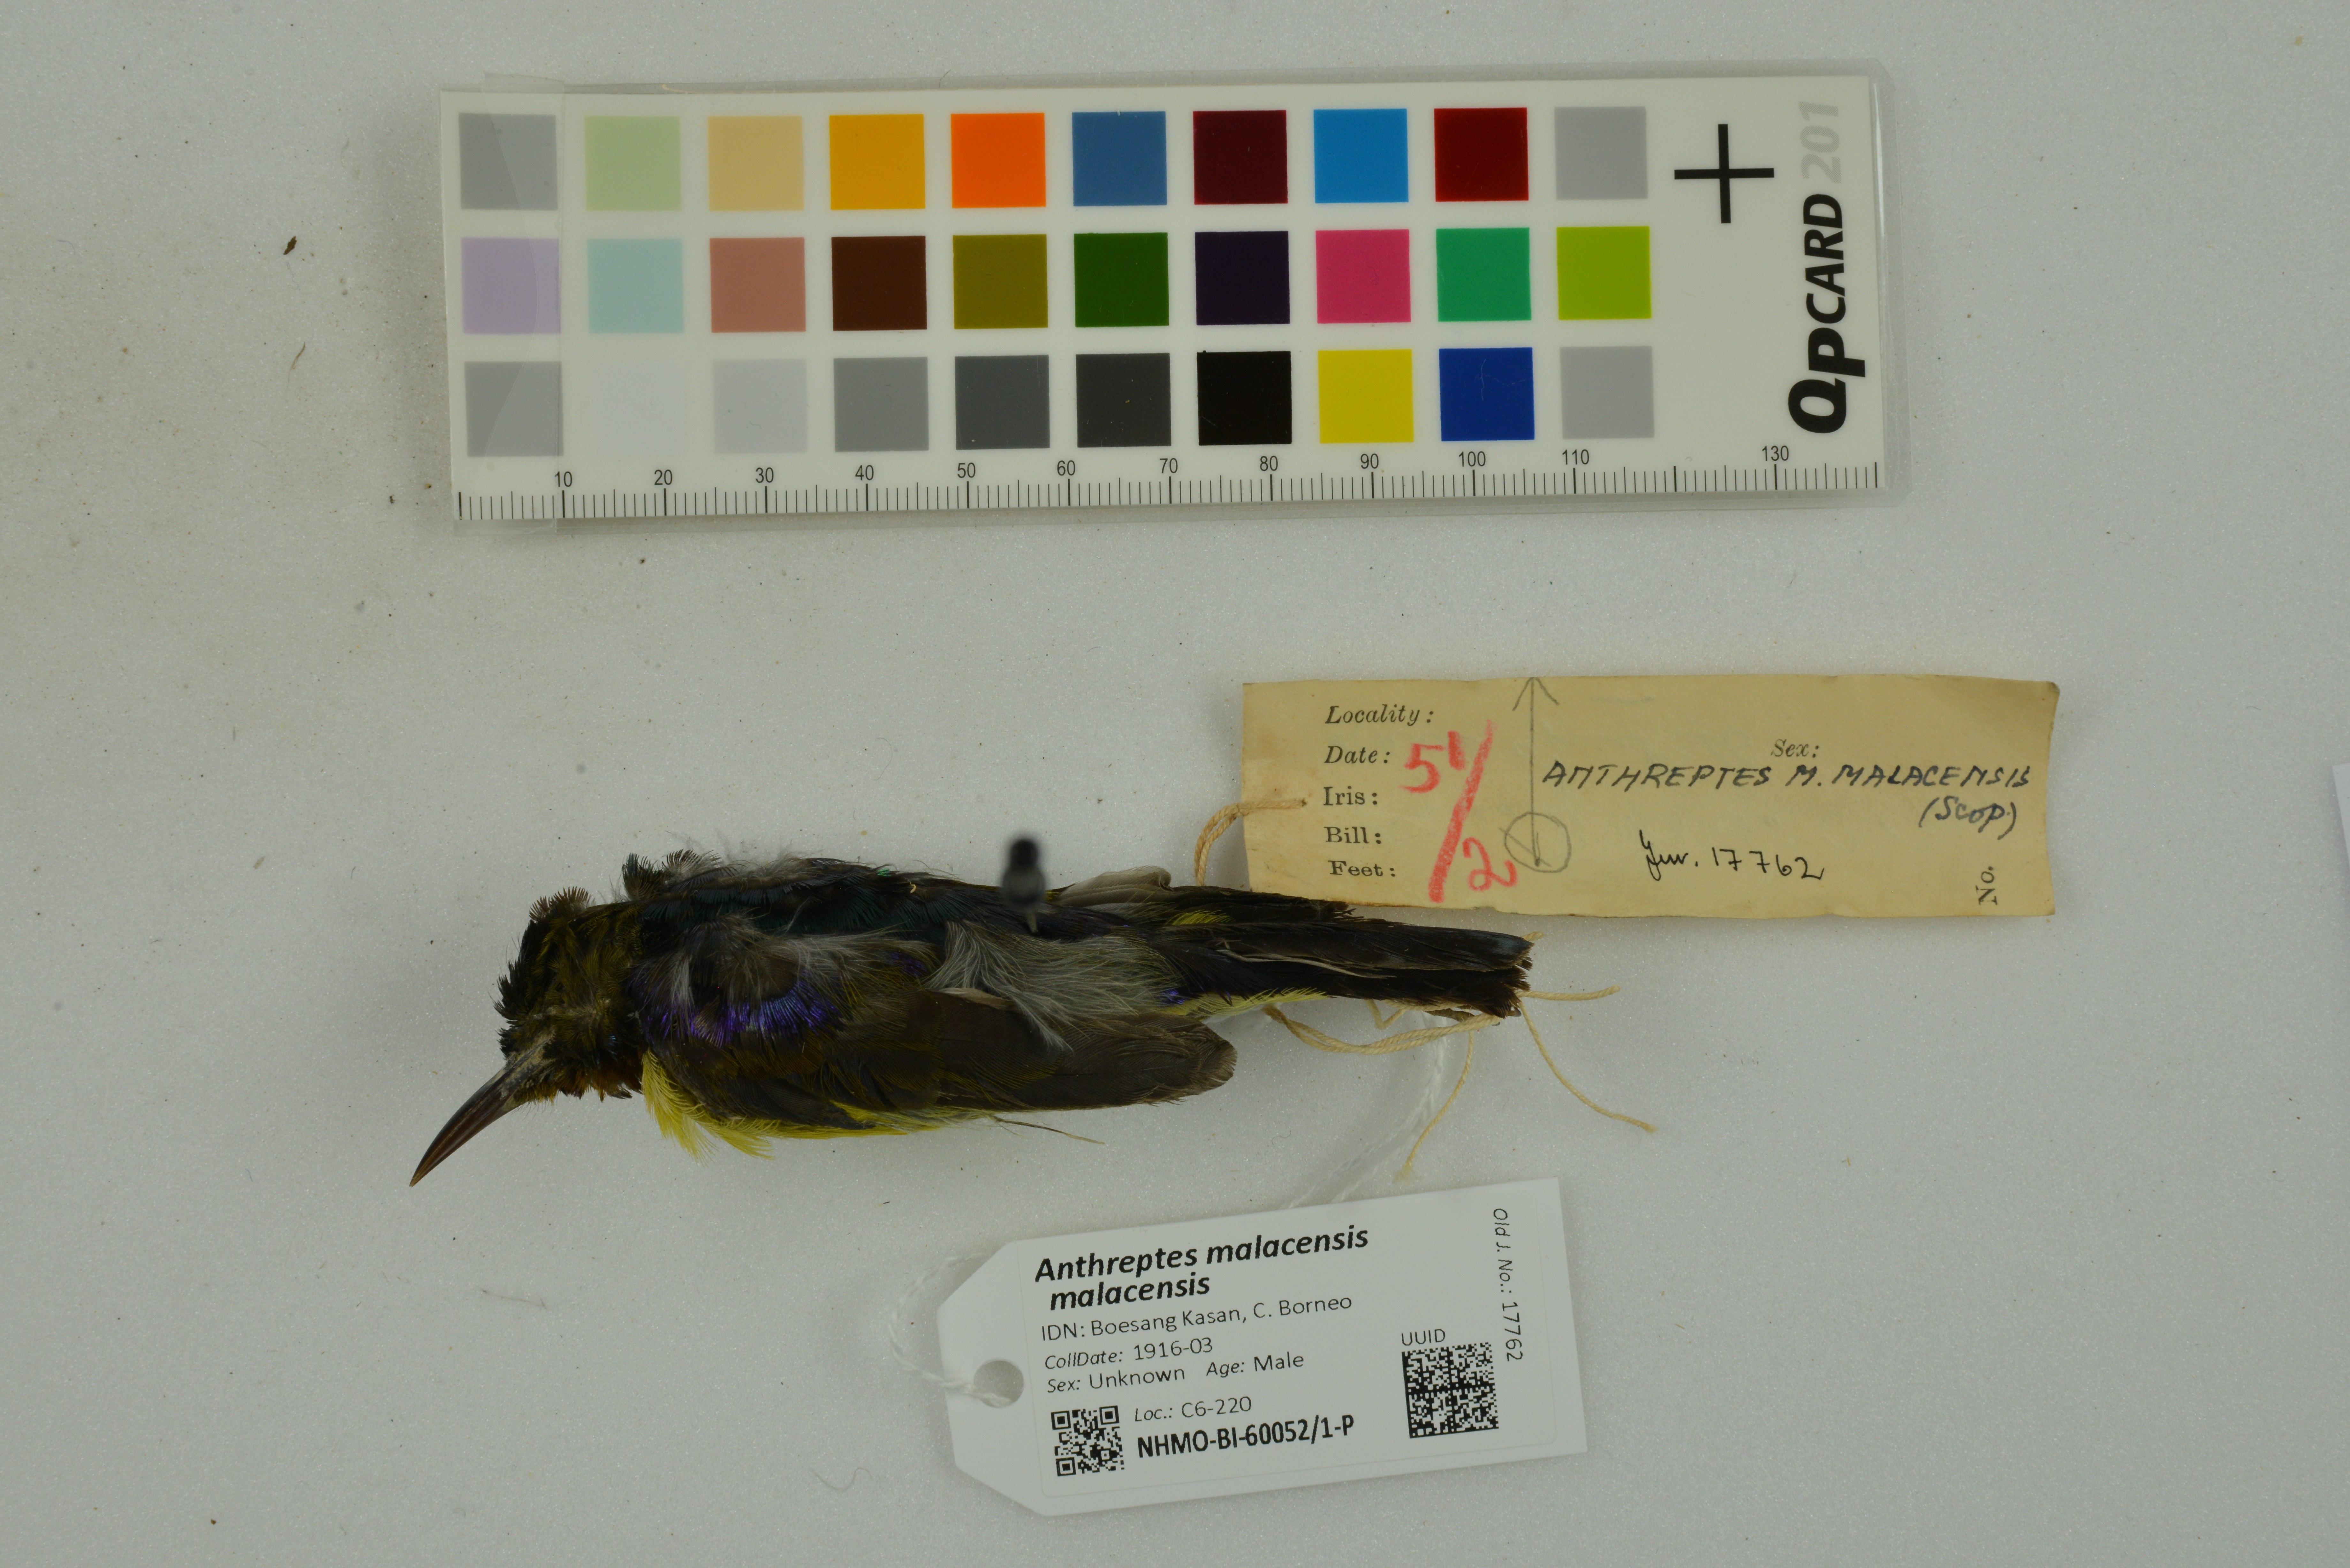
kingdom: Animalia
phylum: Chordata
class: Aves
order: Passeriformes
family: Nectariniidae
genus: Anthreptes
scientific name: Anthreptes malacensis
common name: Brown-throated sunbird
